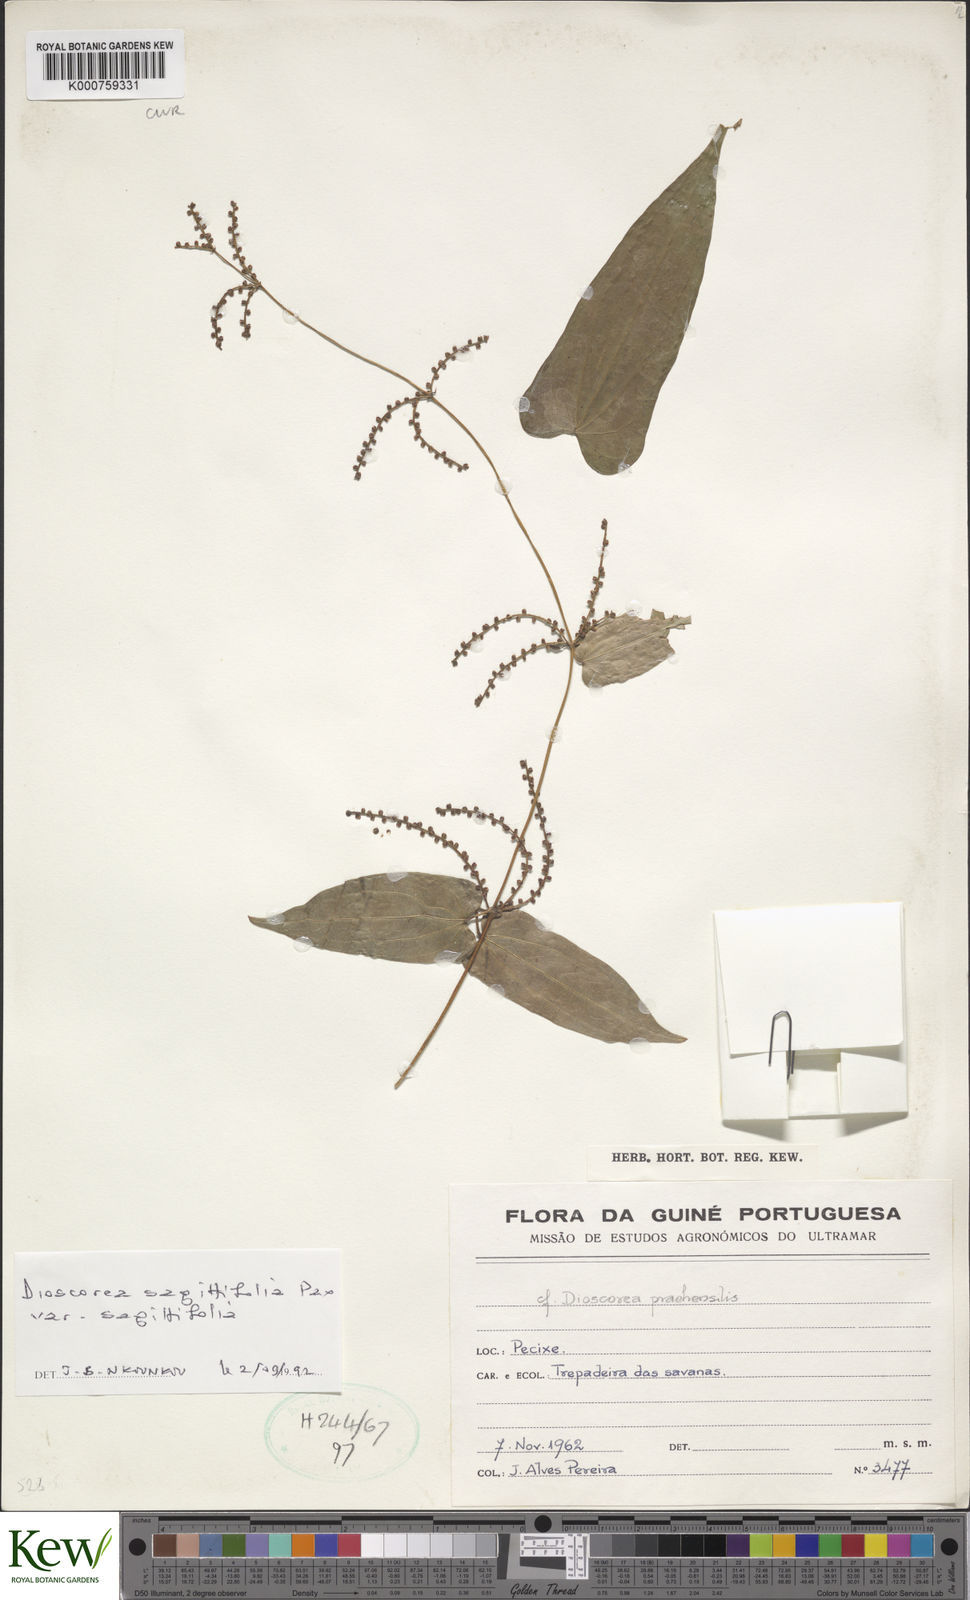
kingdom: Plantae
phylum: Tracheophyta
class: Liliopsida
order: Dioscoreales
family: Dioscoreaceae
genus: Dioscorea
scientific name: Dioscorea sagittifolia
